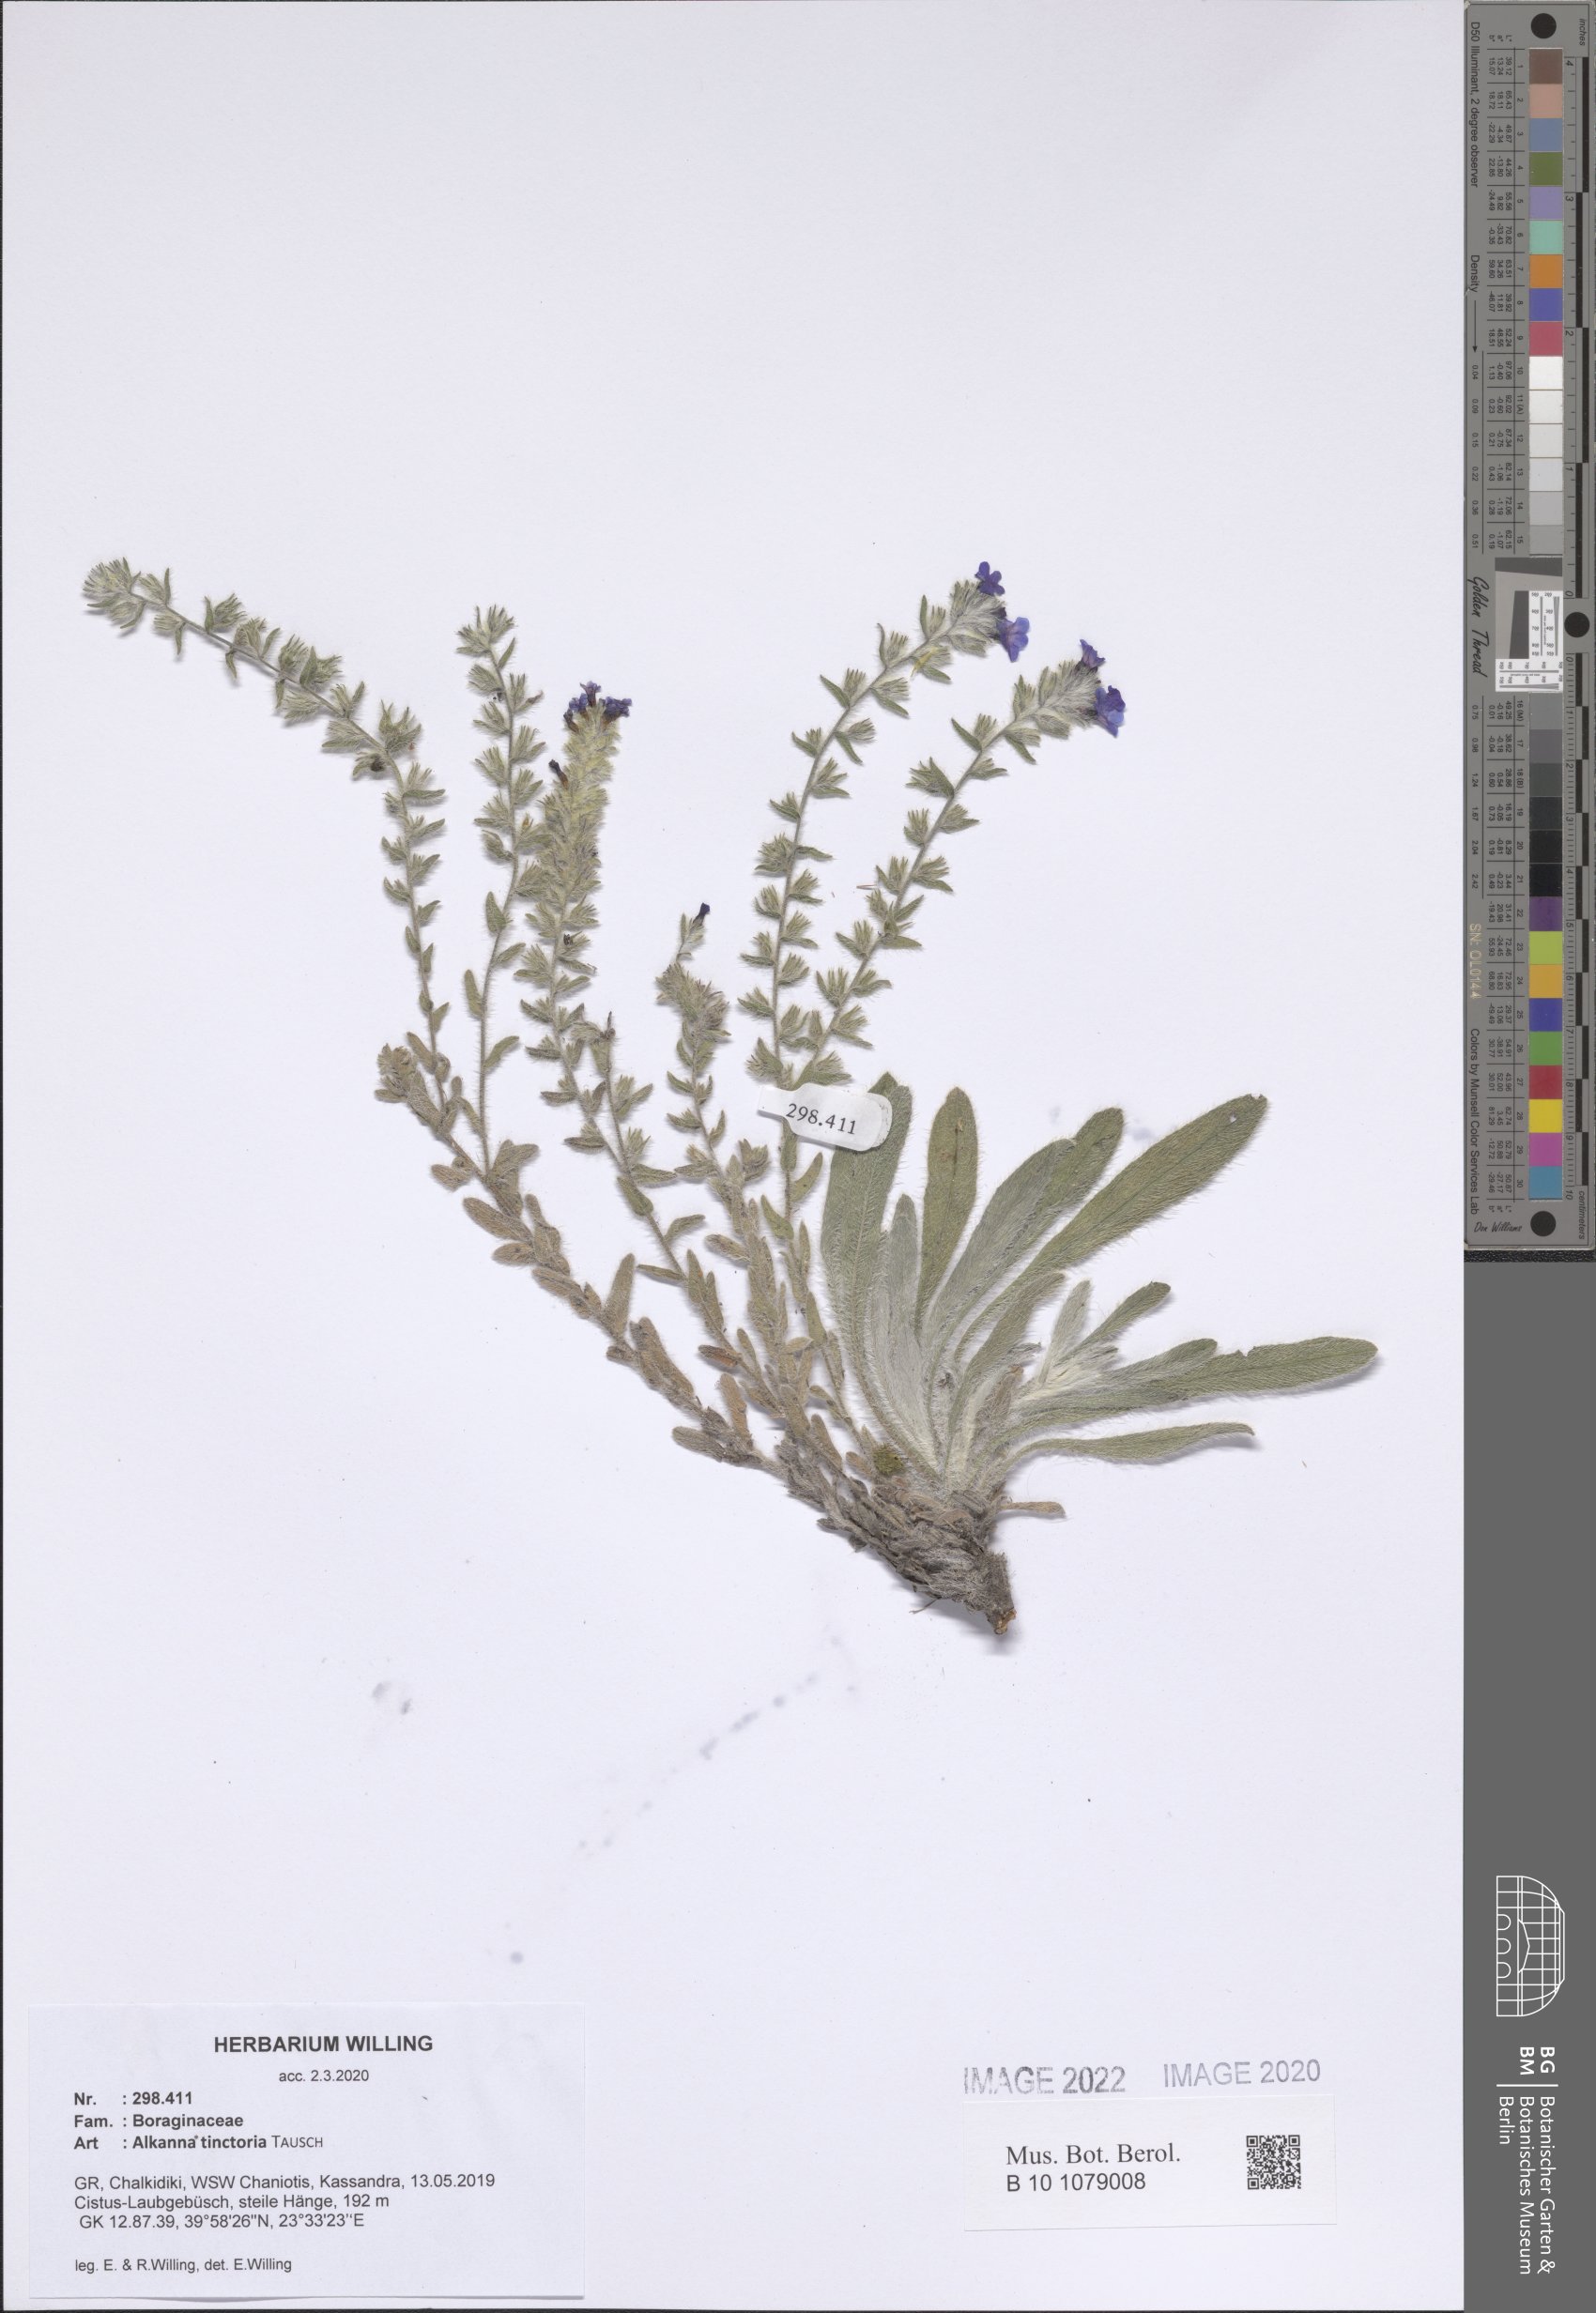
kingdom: Plantae
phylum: Tracheophyta
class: Magnoliopsida
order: Boraginales
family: Boraginaceae
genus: Alkanna
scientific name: Alkanna tinctoria
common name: Dyer's-alkanet
